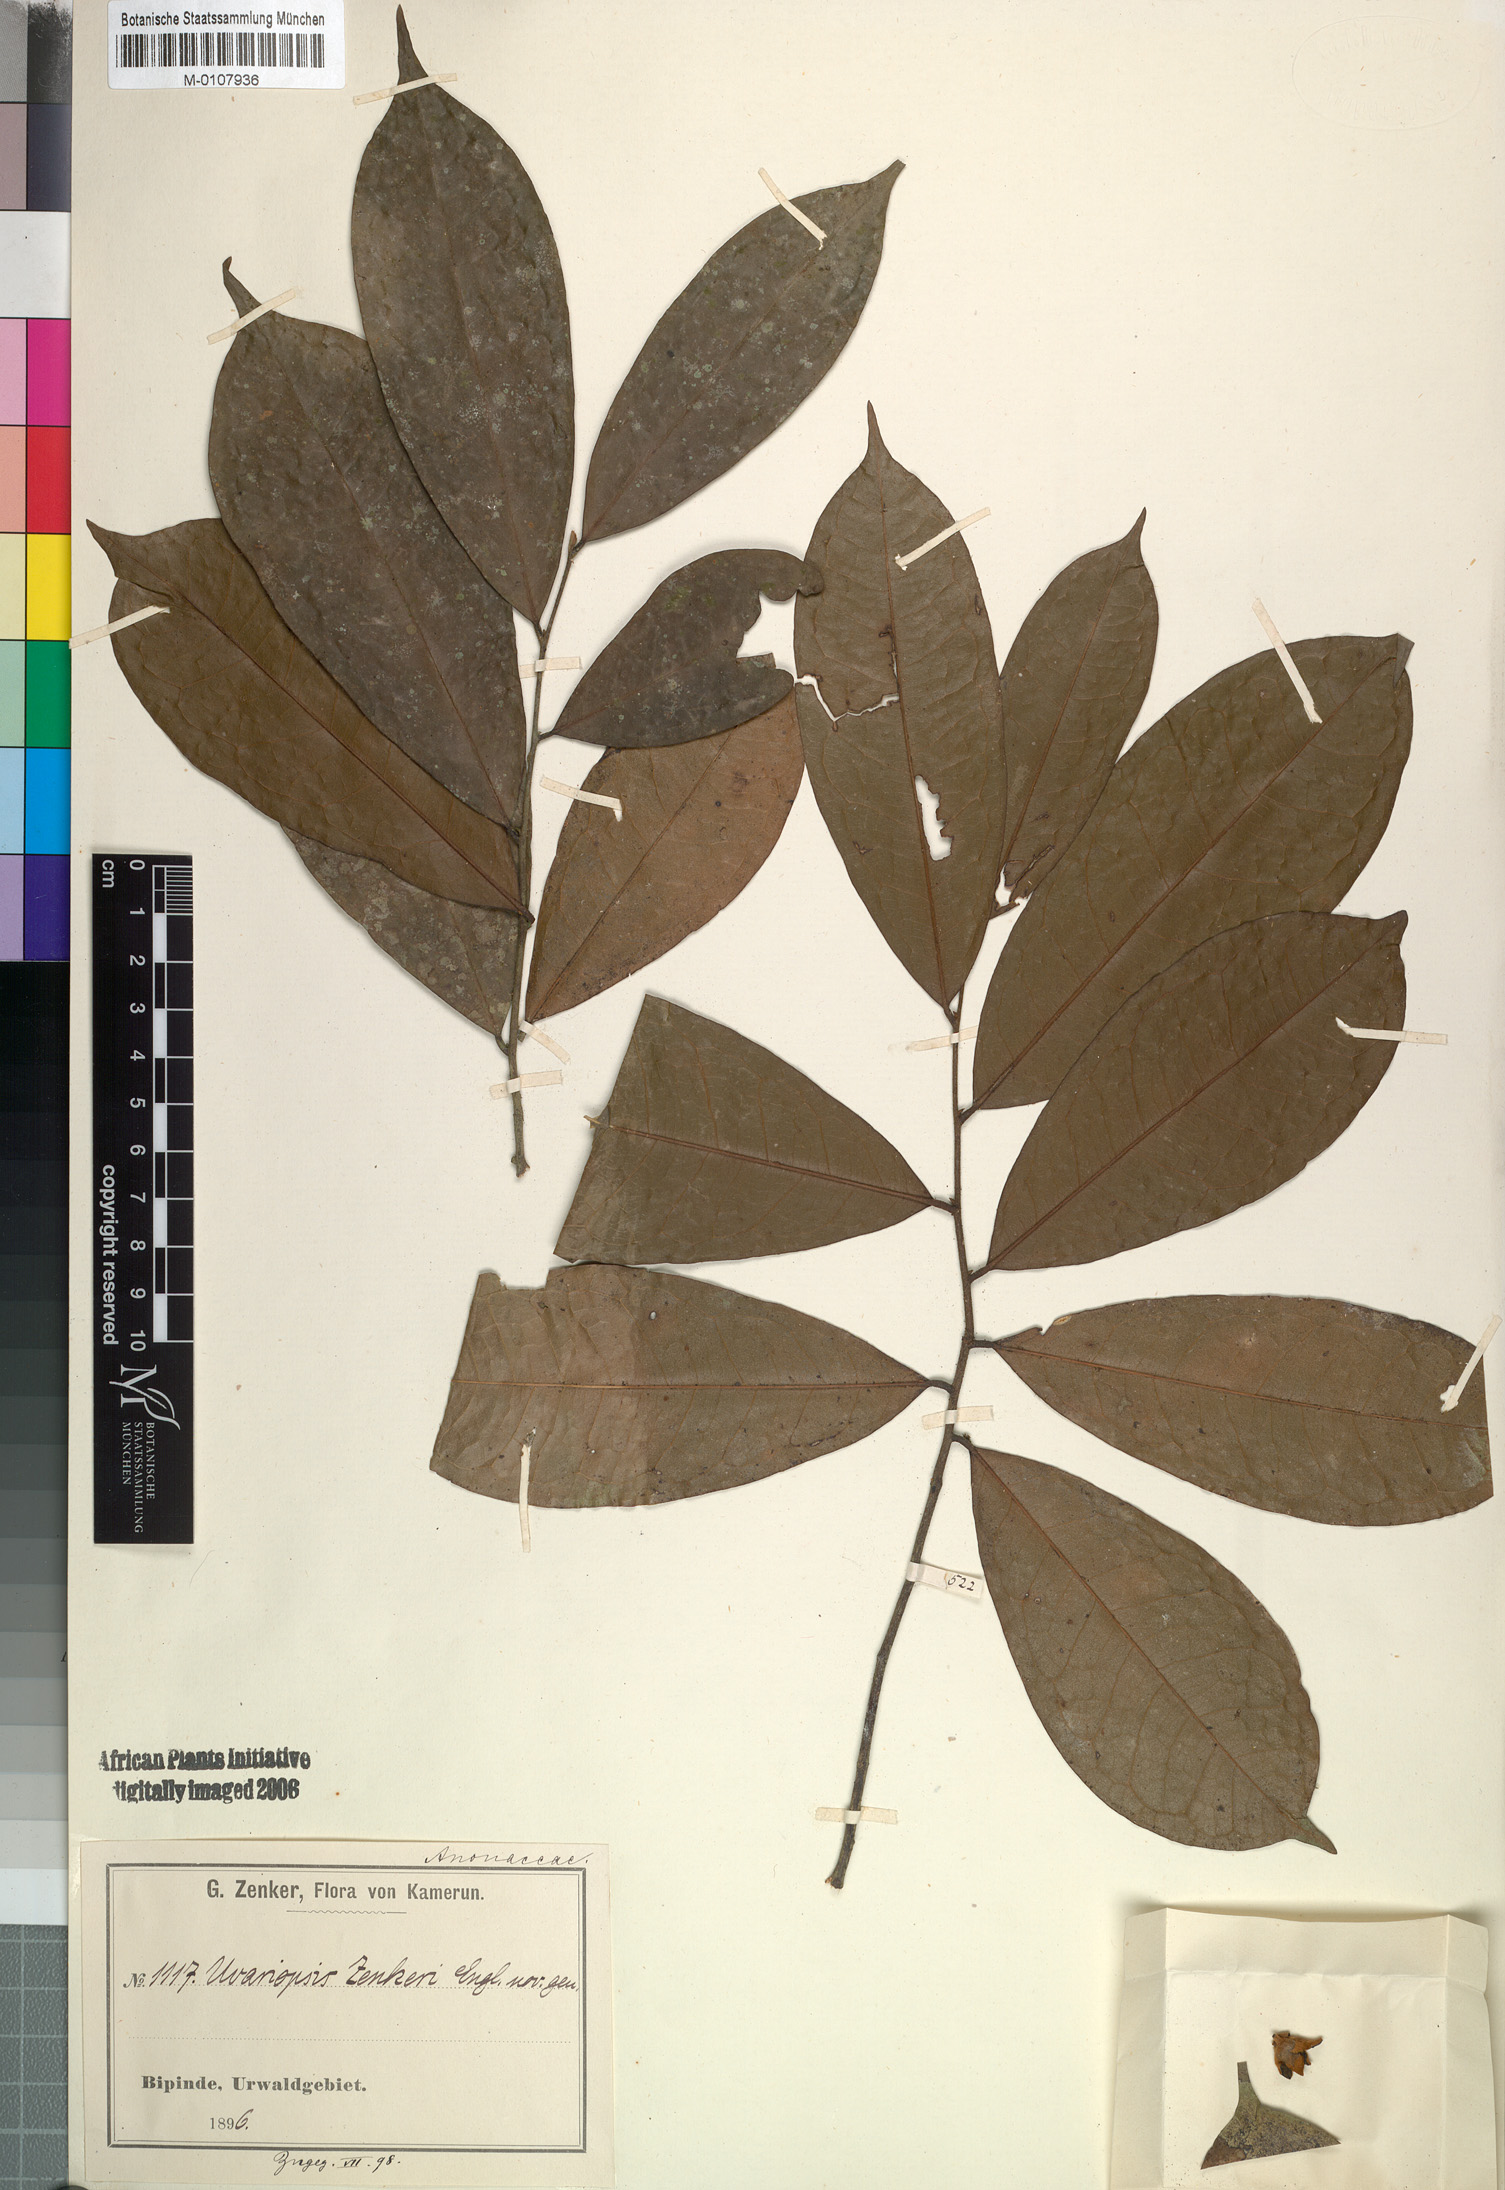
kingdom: Plantae
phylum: Tracheophyta
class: Magnoliopsida
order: Magnoliales
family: Annonaceae
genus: Uvariopsis
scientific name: Uvariopsis zenkeri
